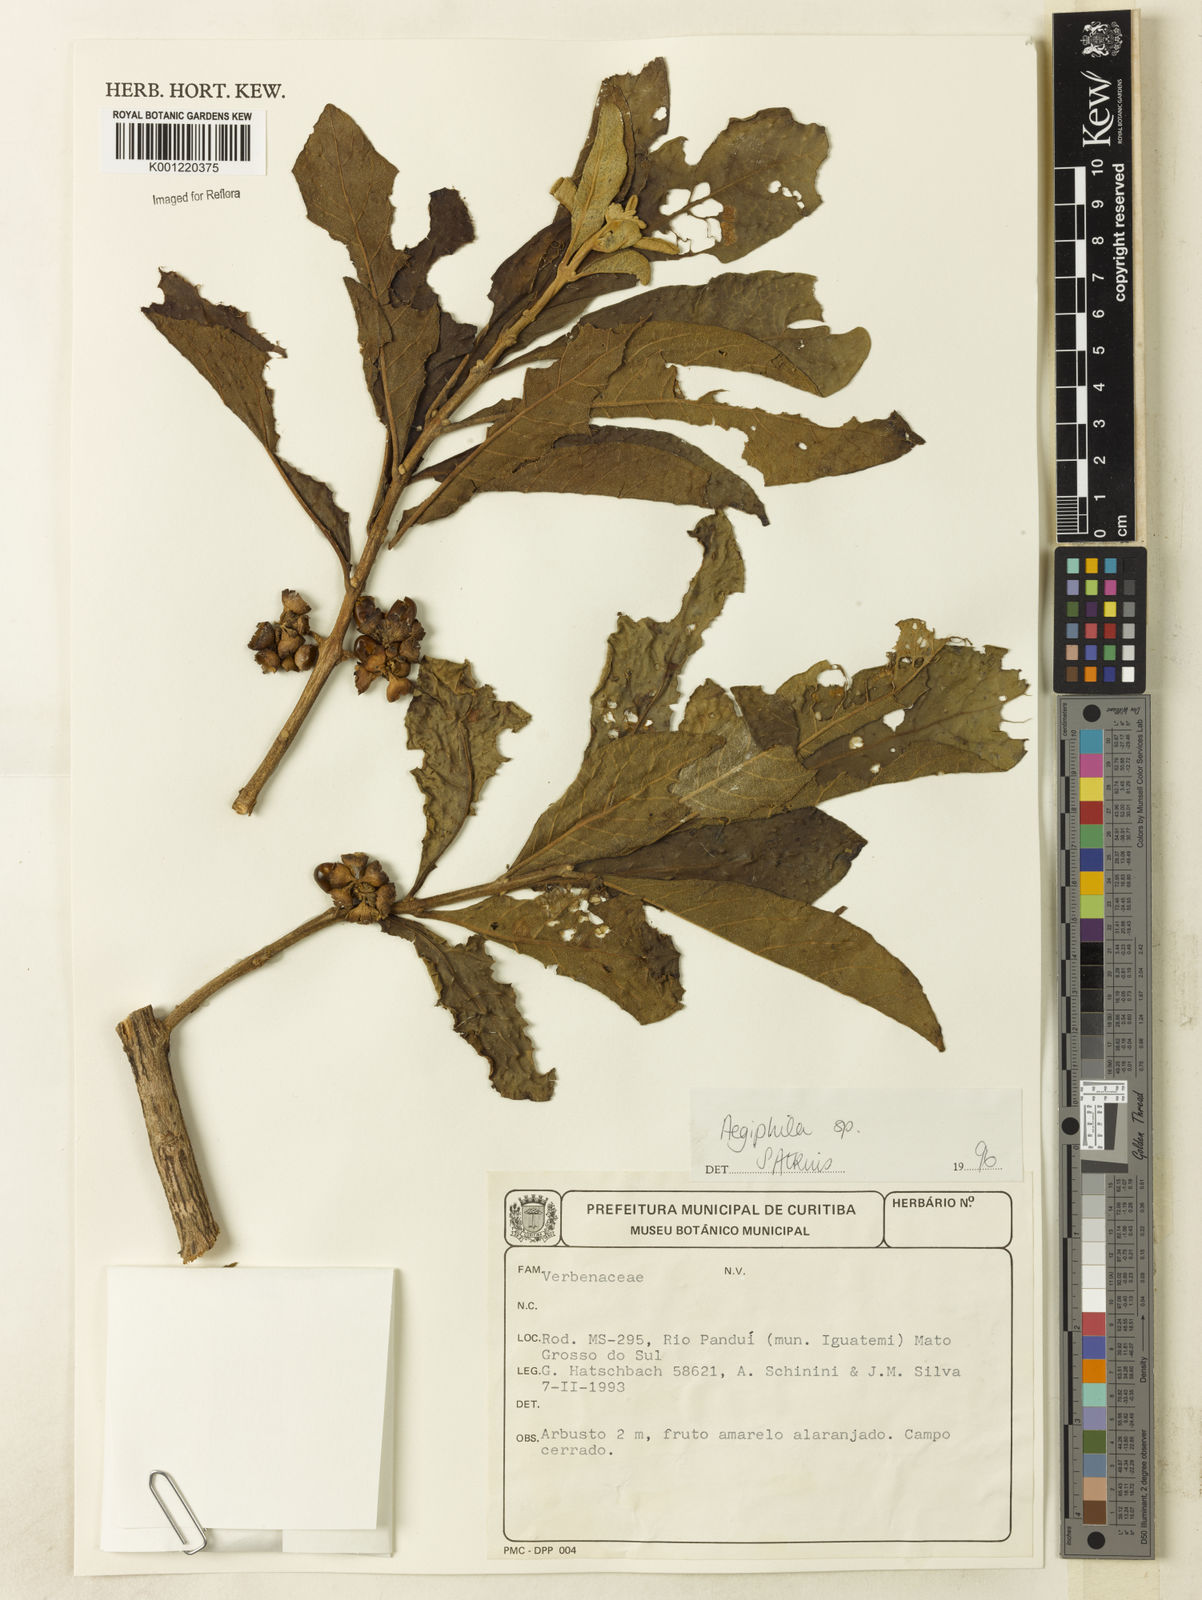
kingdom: Plantae
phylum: Tracheophyta
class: Magnoliopsida
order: Lamiales
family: Lamiaceae
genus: Aegiphila
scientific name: Aegiphila
